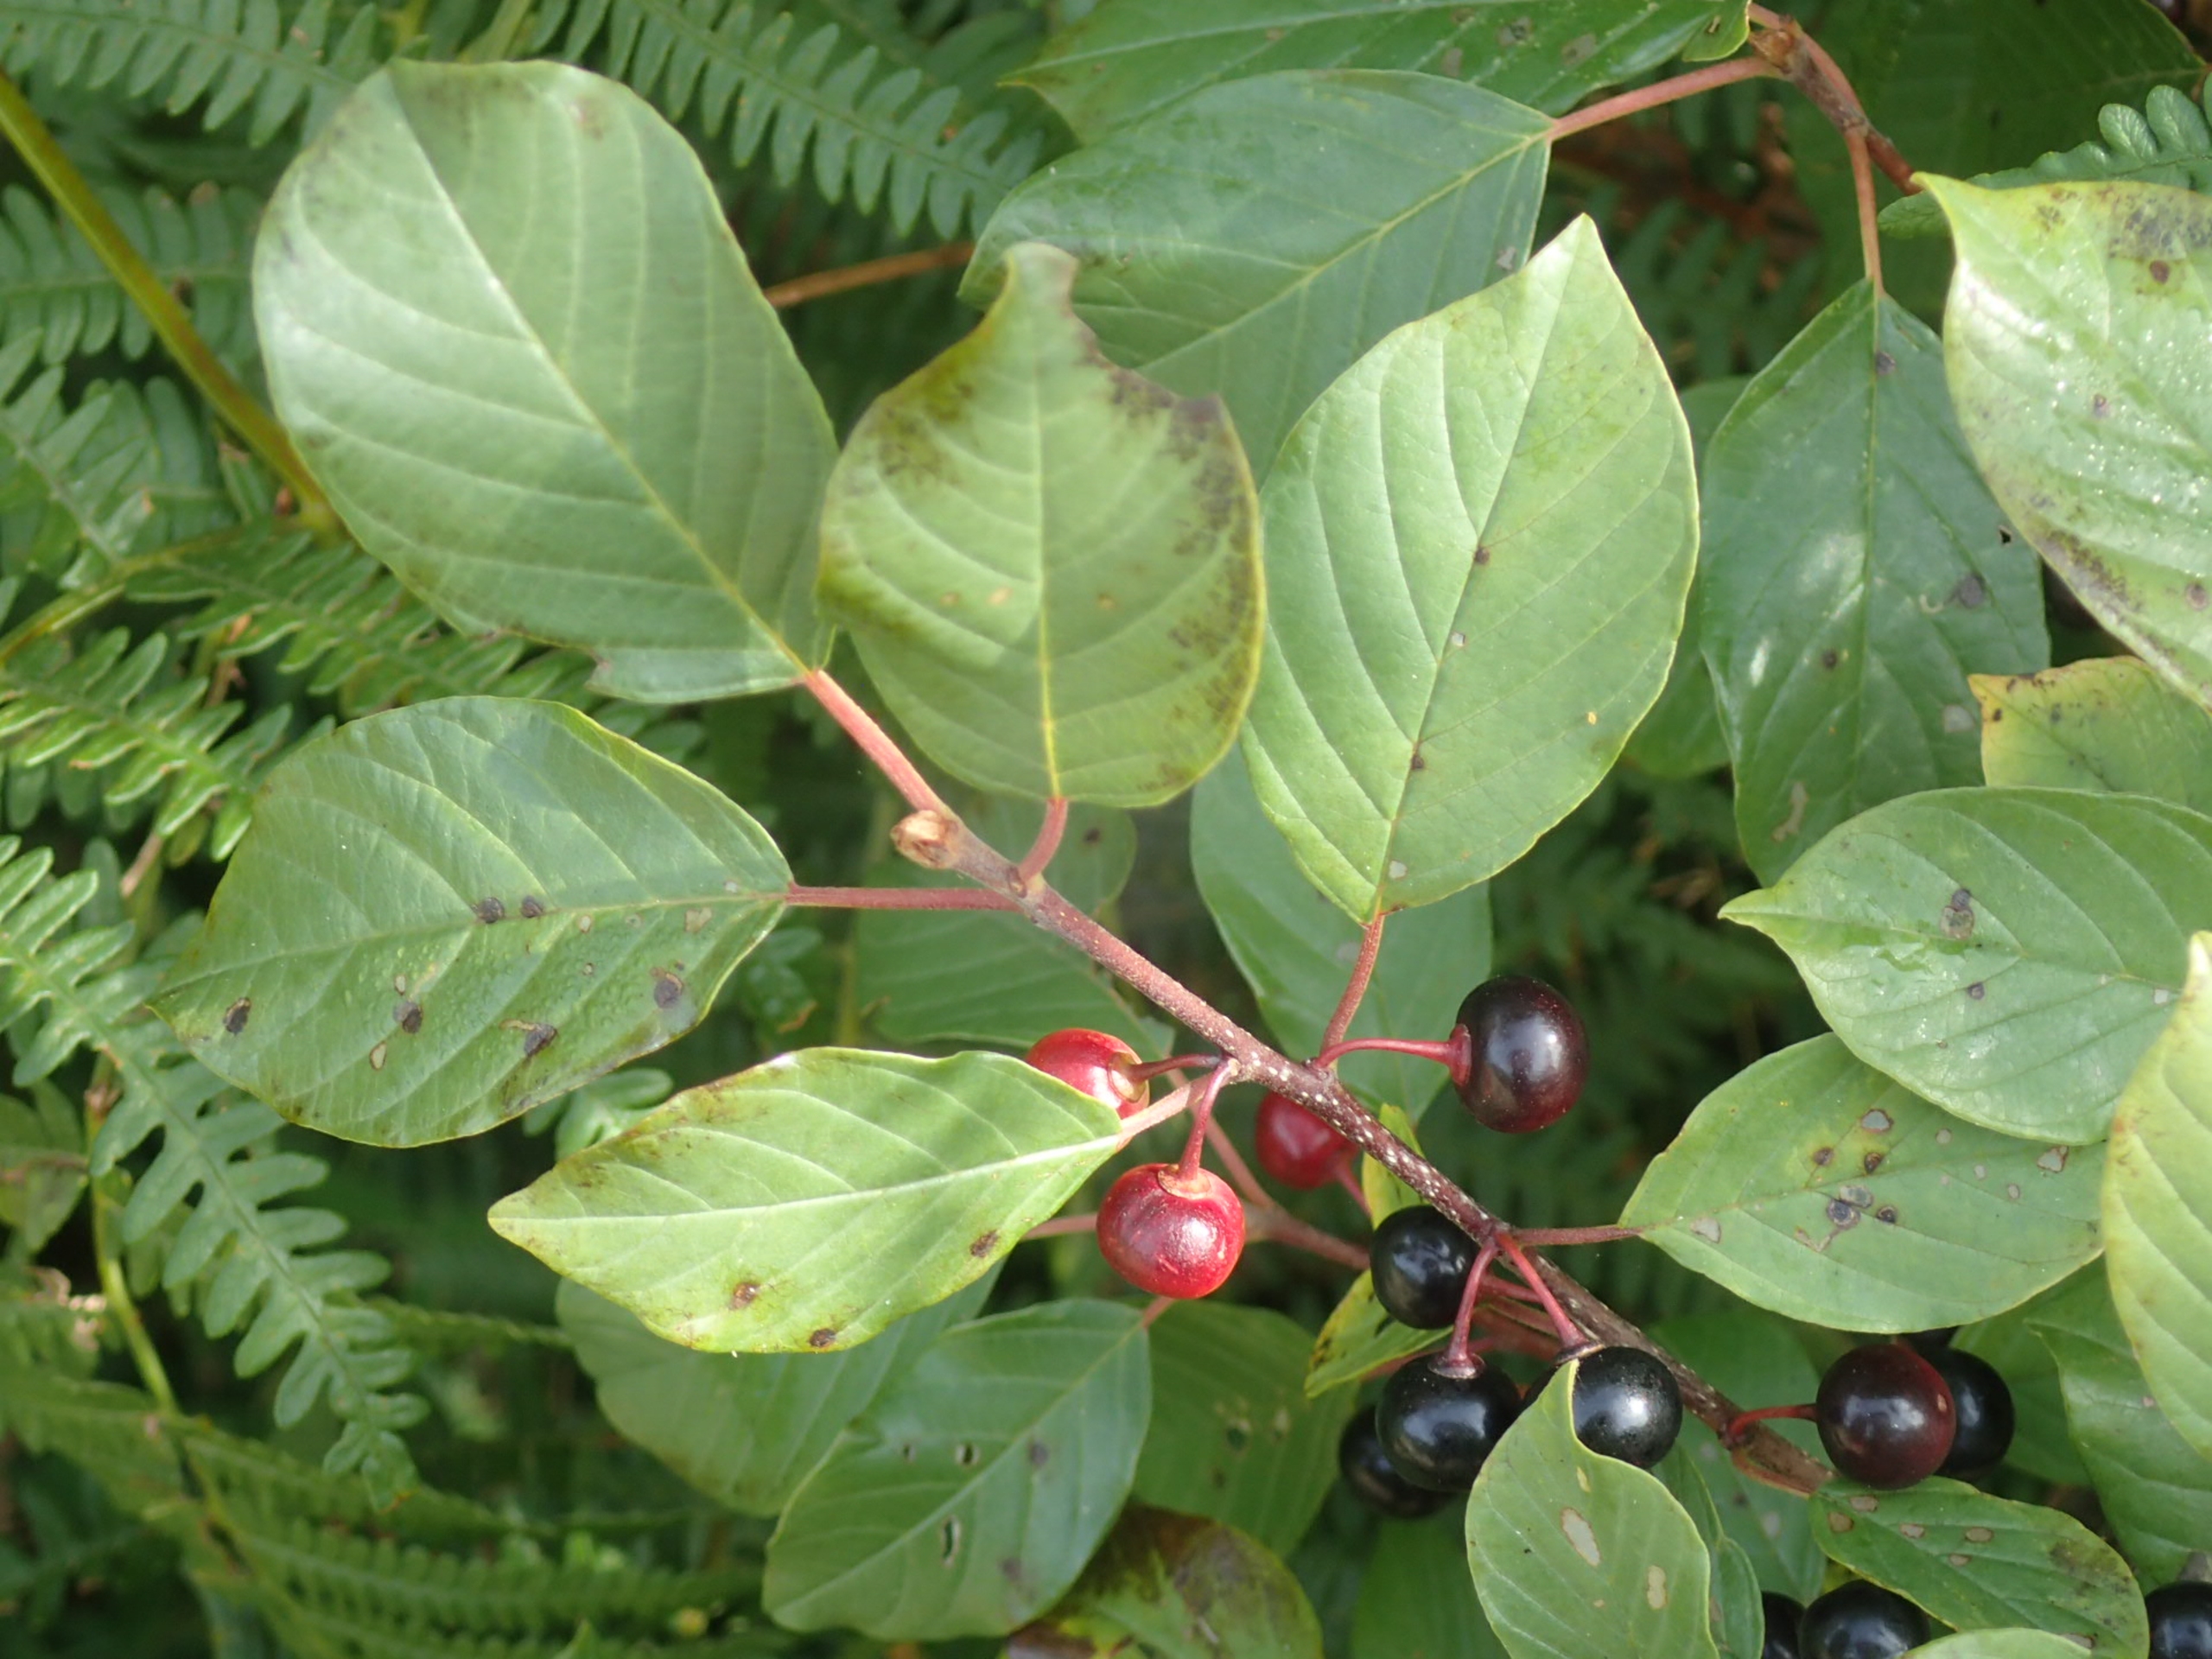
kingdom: Plantae
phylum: Tracheophyta
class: Magnoliopsida
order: Rosales
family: Rhamnaceae
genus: Frangula
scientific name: Frangula alnus
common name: Tørst
